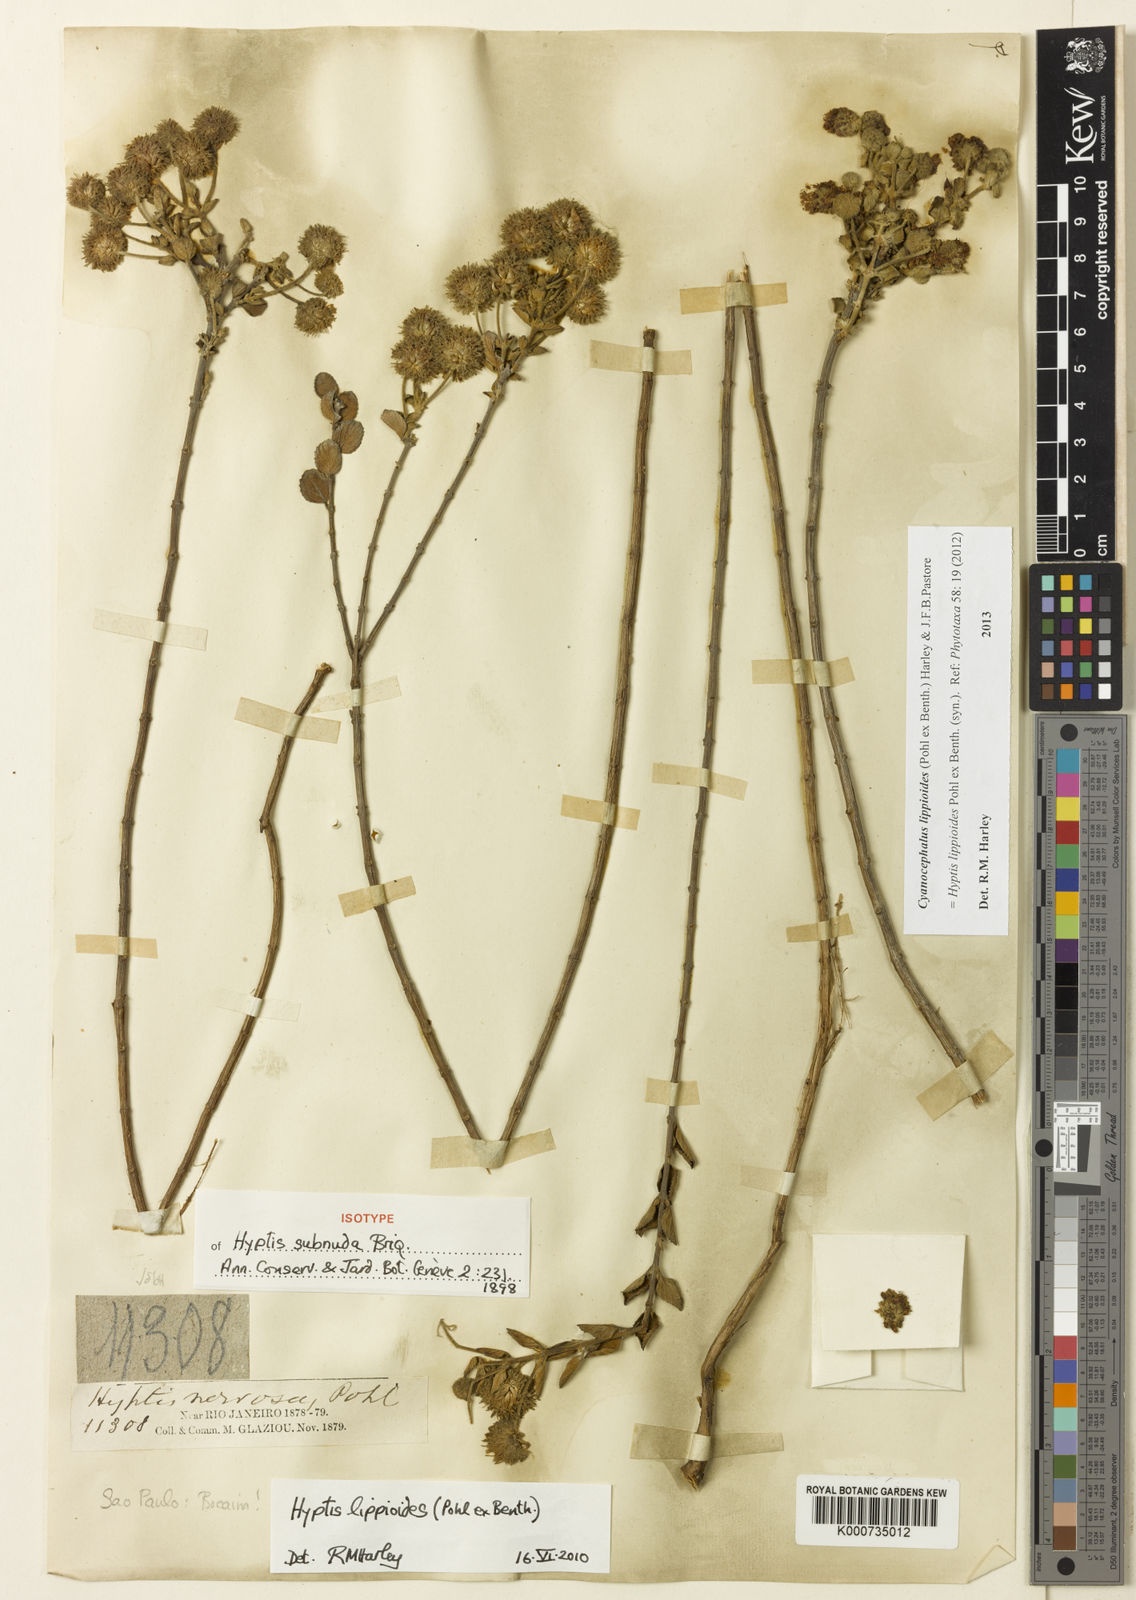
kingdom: Plantae
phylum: Tracheophyta
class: Magnoliopsida
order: Lamiales
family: Lamiaceae
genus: Cyanocephalus
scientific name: Cyanocephalus lippioides
